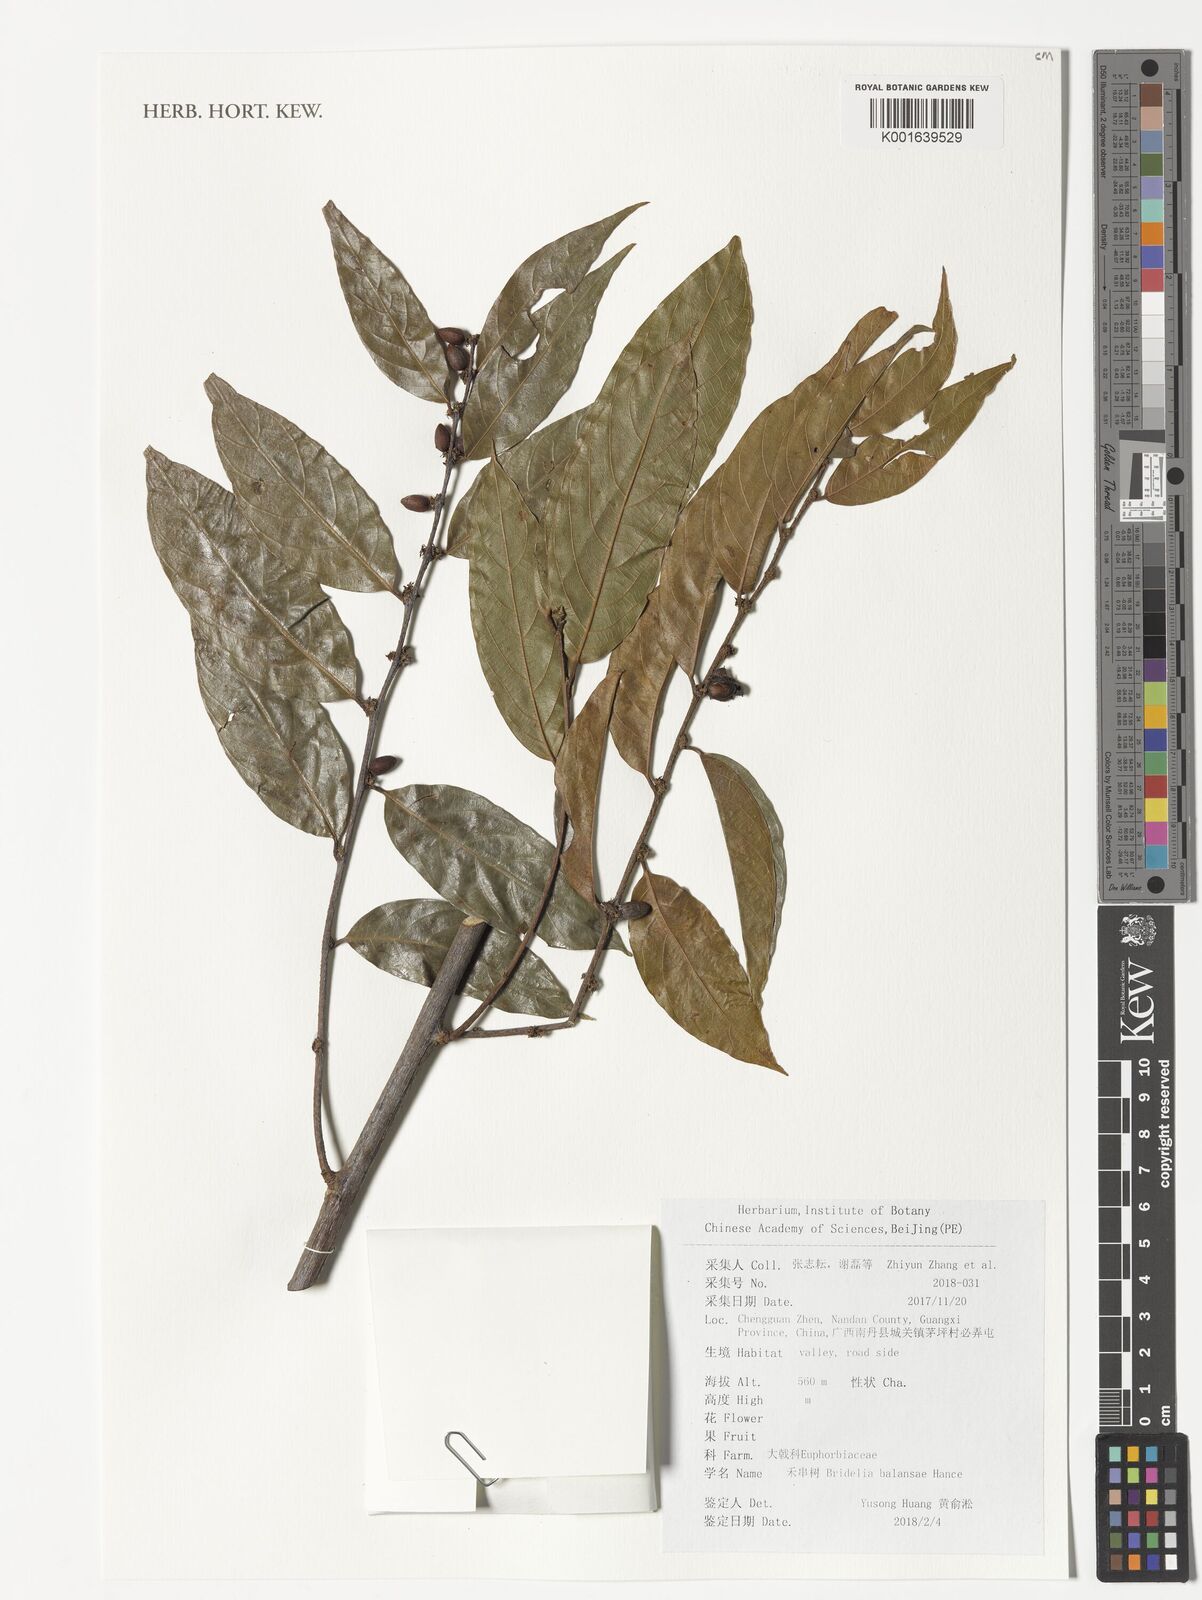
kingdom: Plantae
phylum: Tracheophyta
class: Magnoliopsida
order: Malpighiales
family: Phyllanthaceae
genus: Bridelia
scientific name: Bridelia balansae
